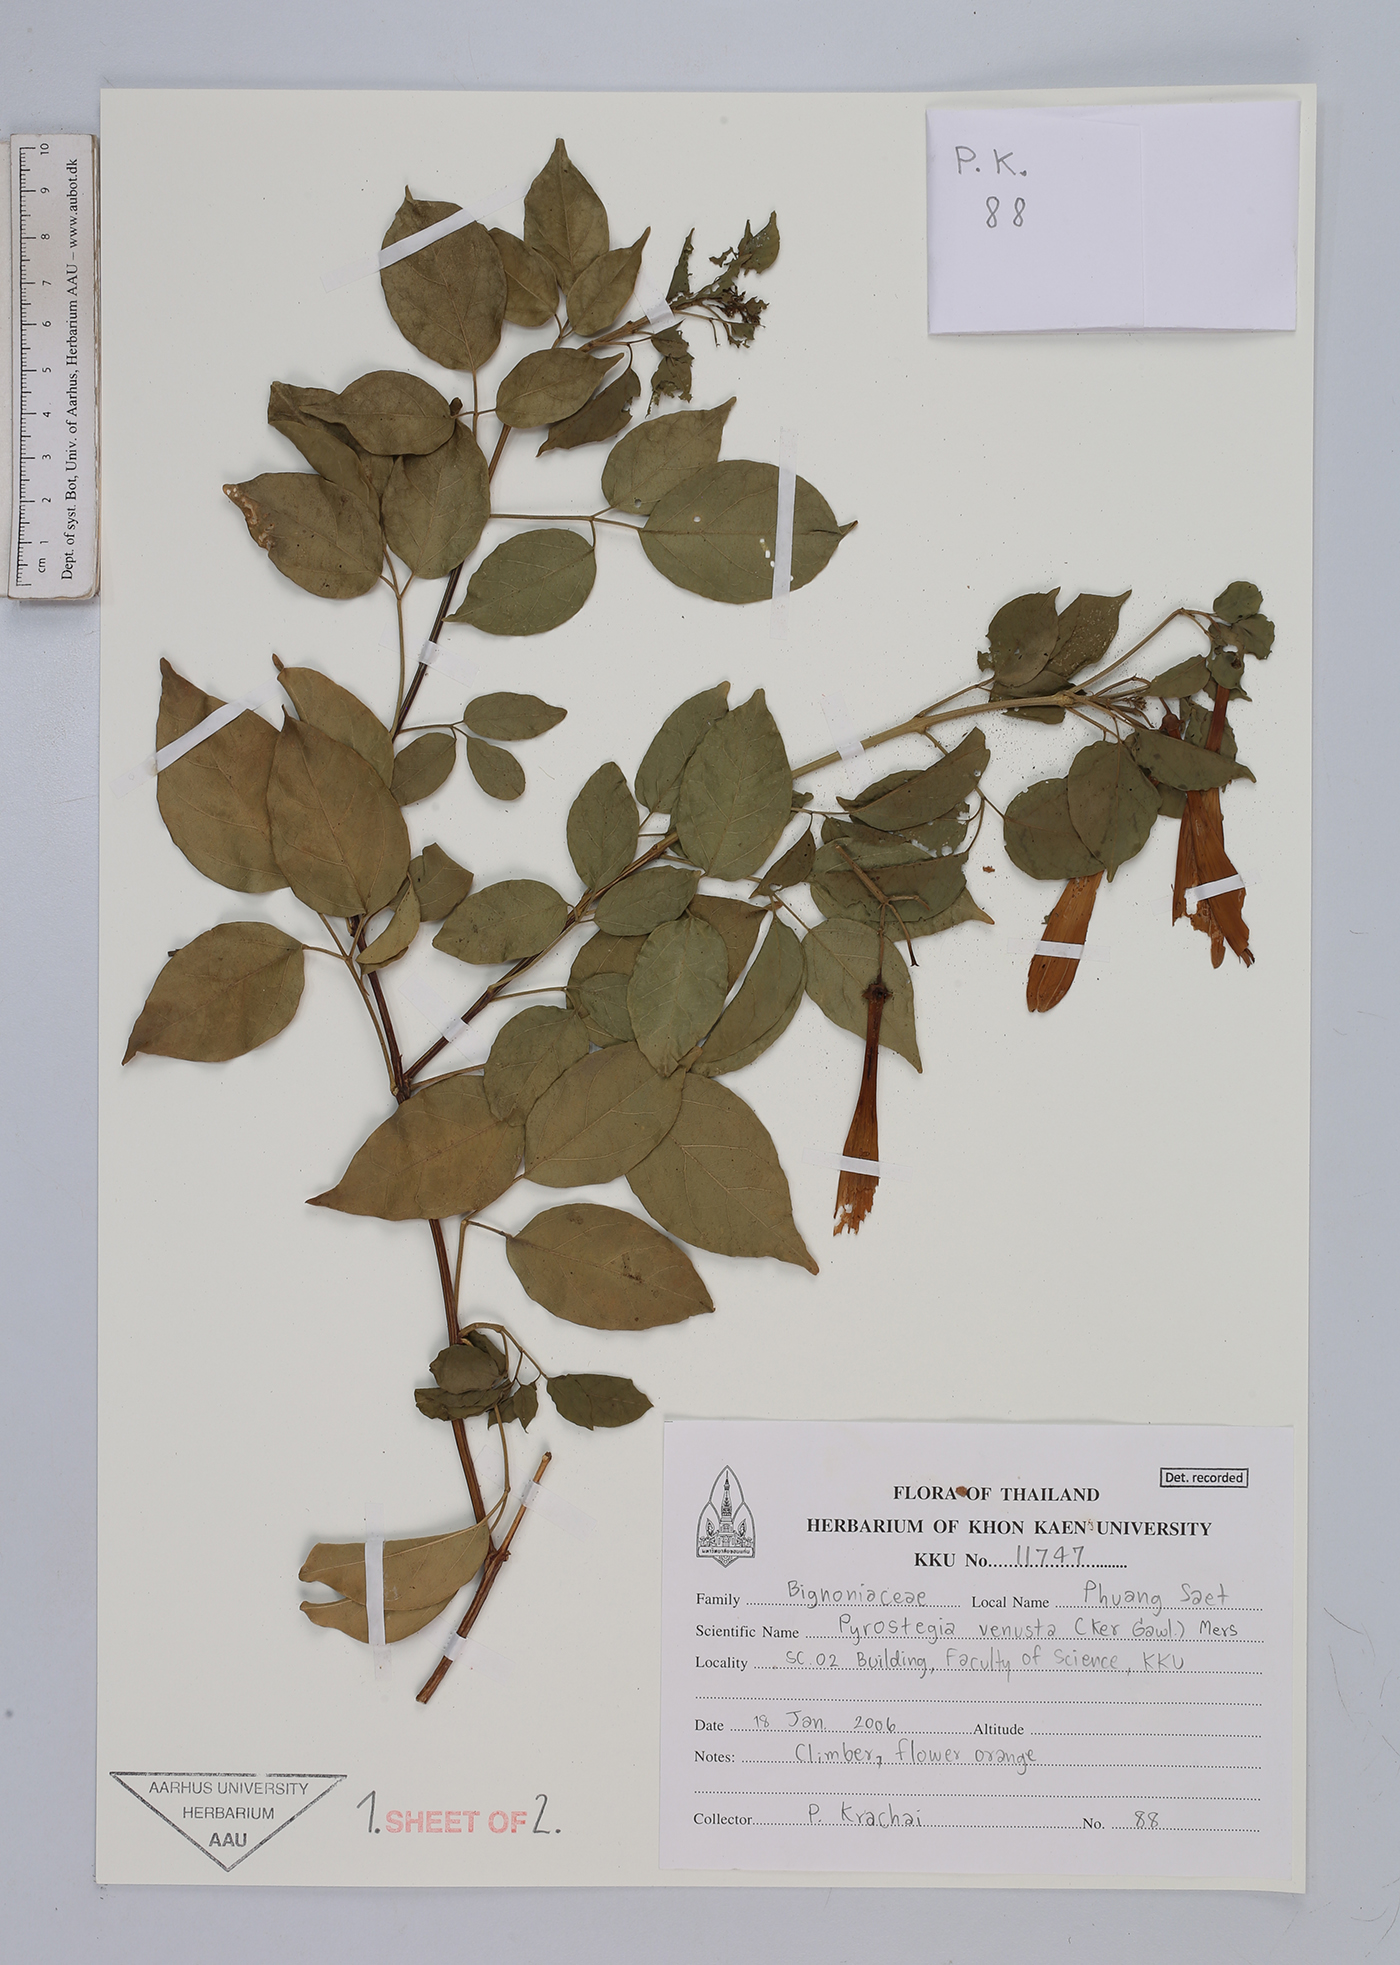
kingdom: Plantae
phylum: Tracheophyta
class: Magnoliopsida
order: Lamiales
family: Bignoniaceae
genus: Pyrostegia
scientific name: Pyrostegia venusta
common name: Flamevine
